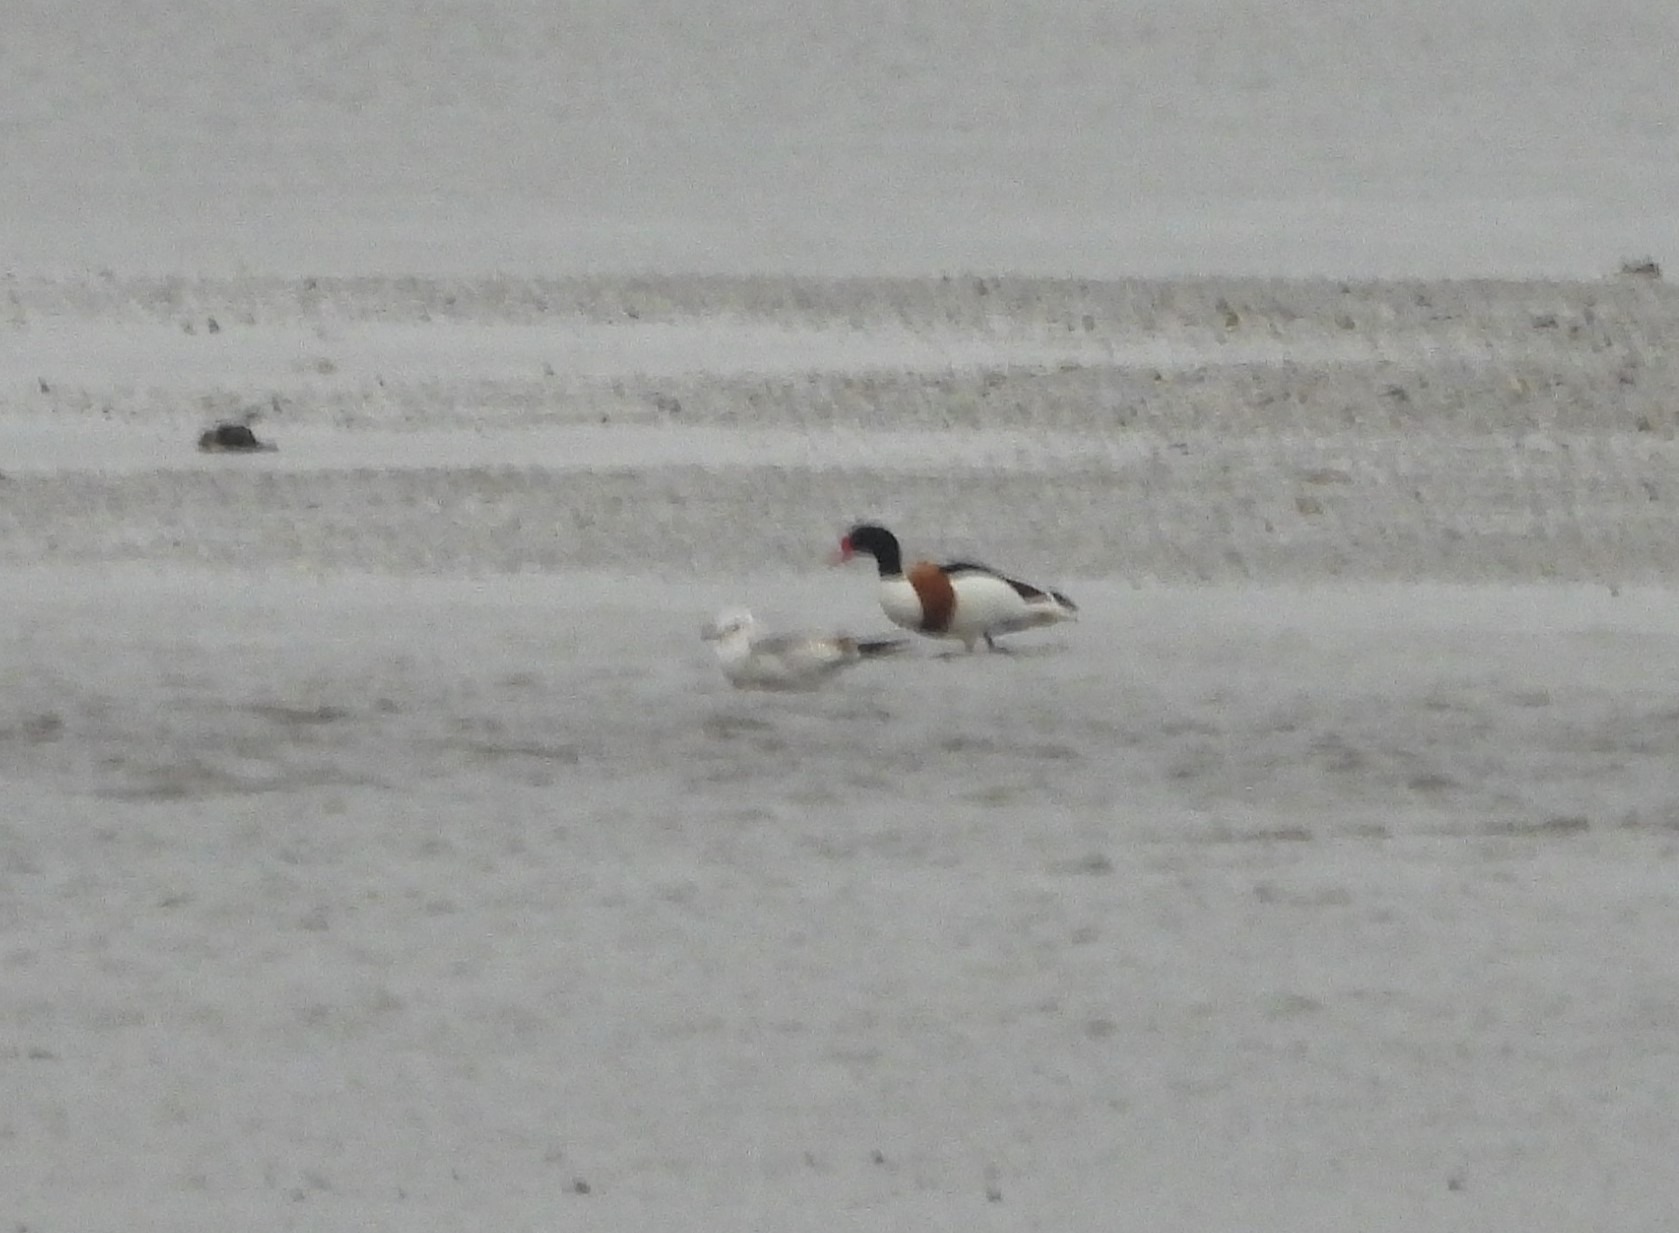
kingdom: Animalia
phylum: Chordata
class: Aves
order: Anseriformes
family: Anatidae
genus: Tadorna
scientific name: Tadorna tadorna
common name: Gravand
